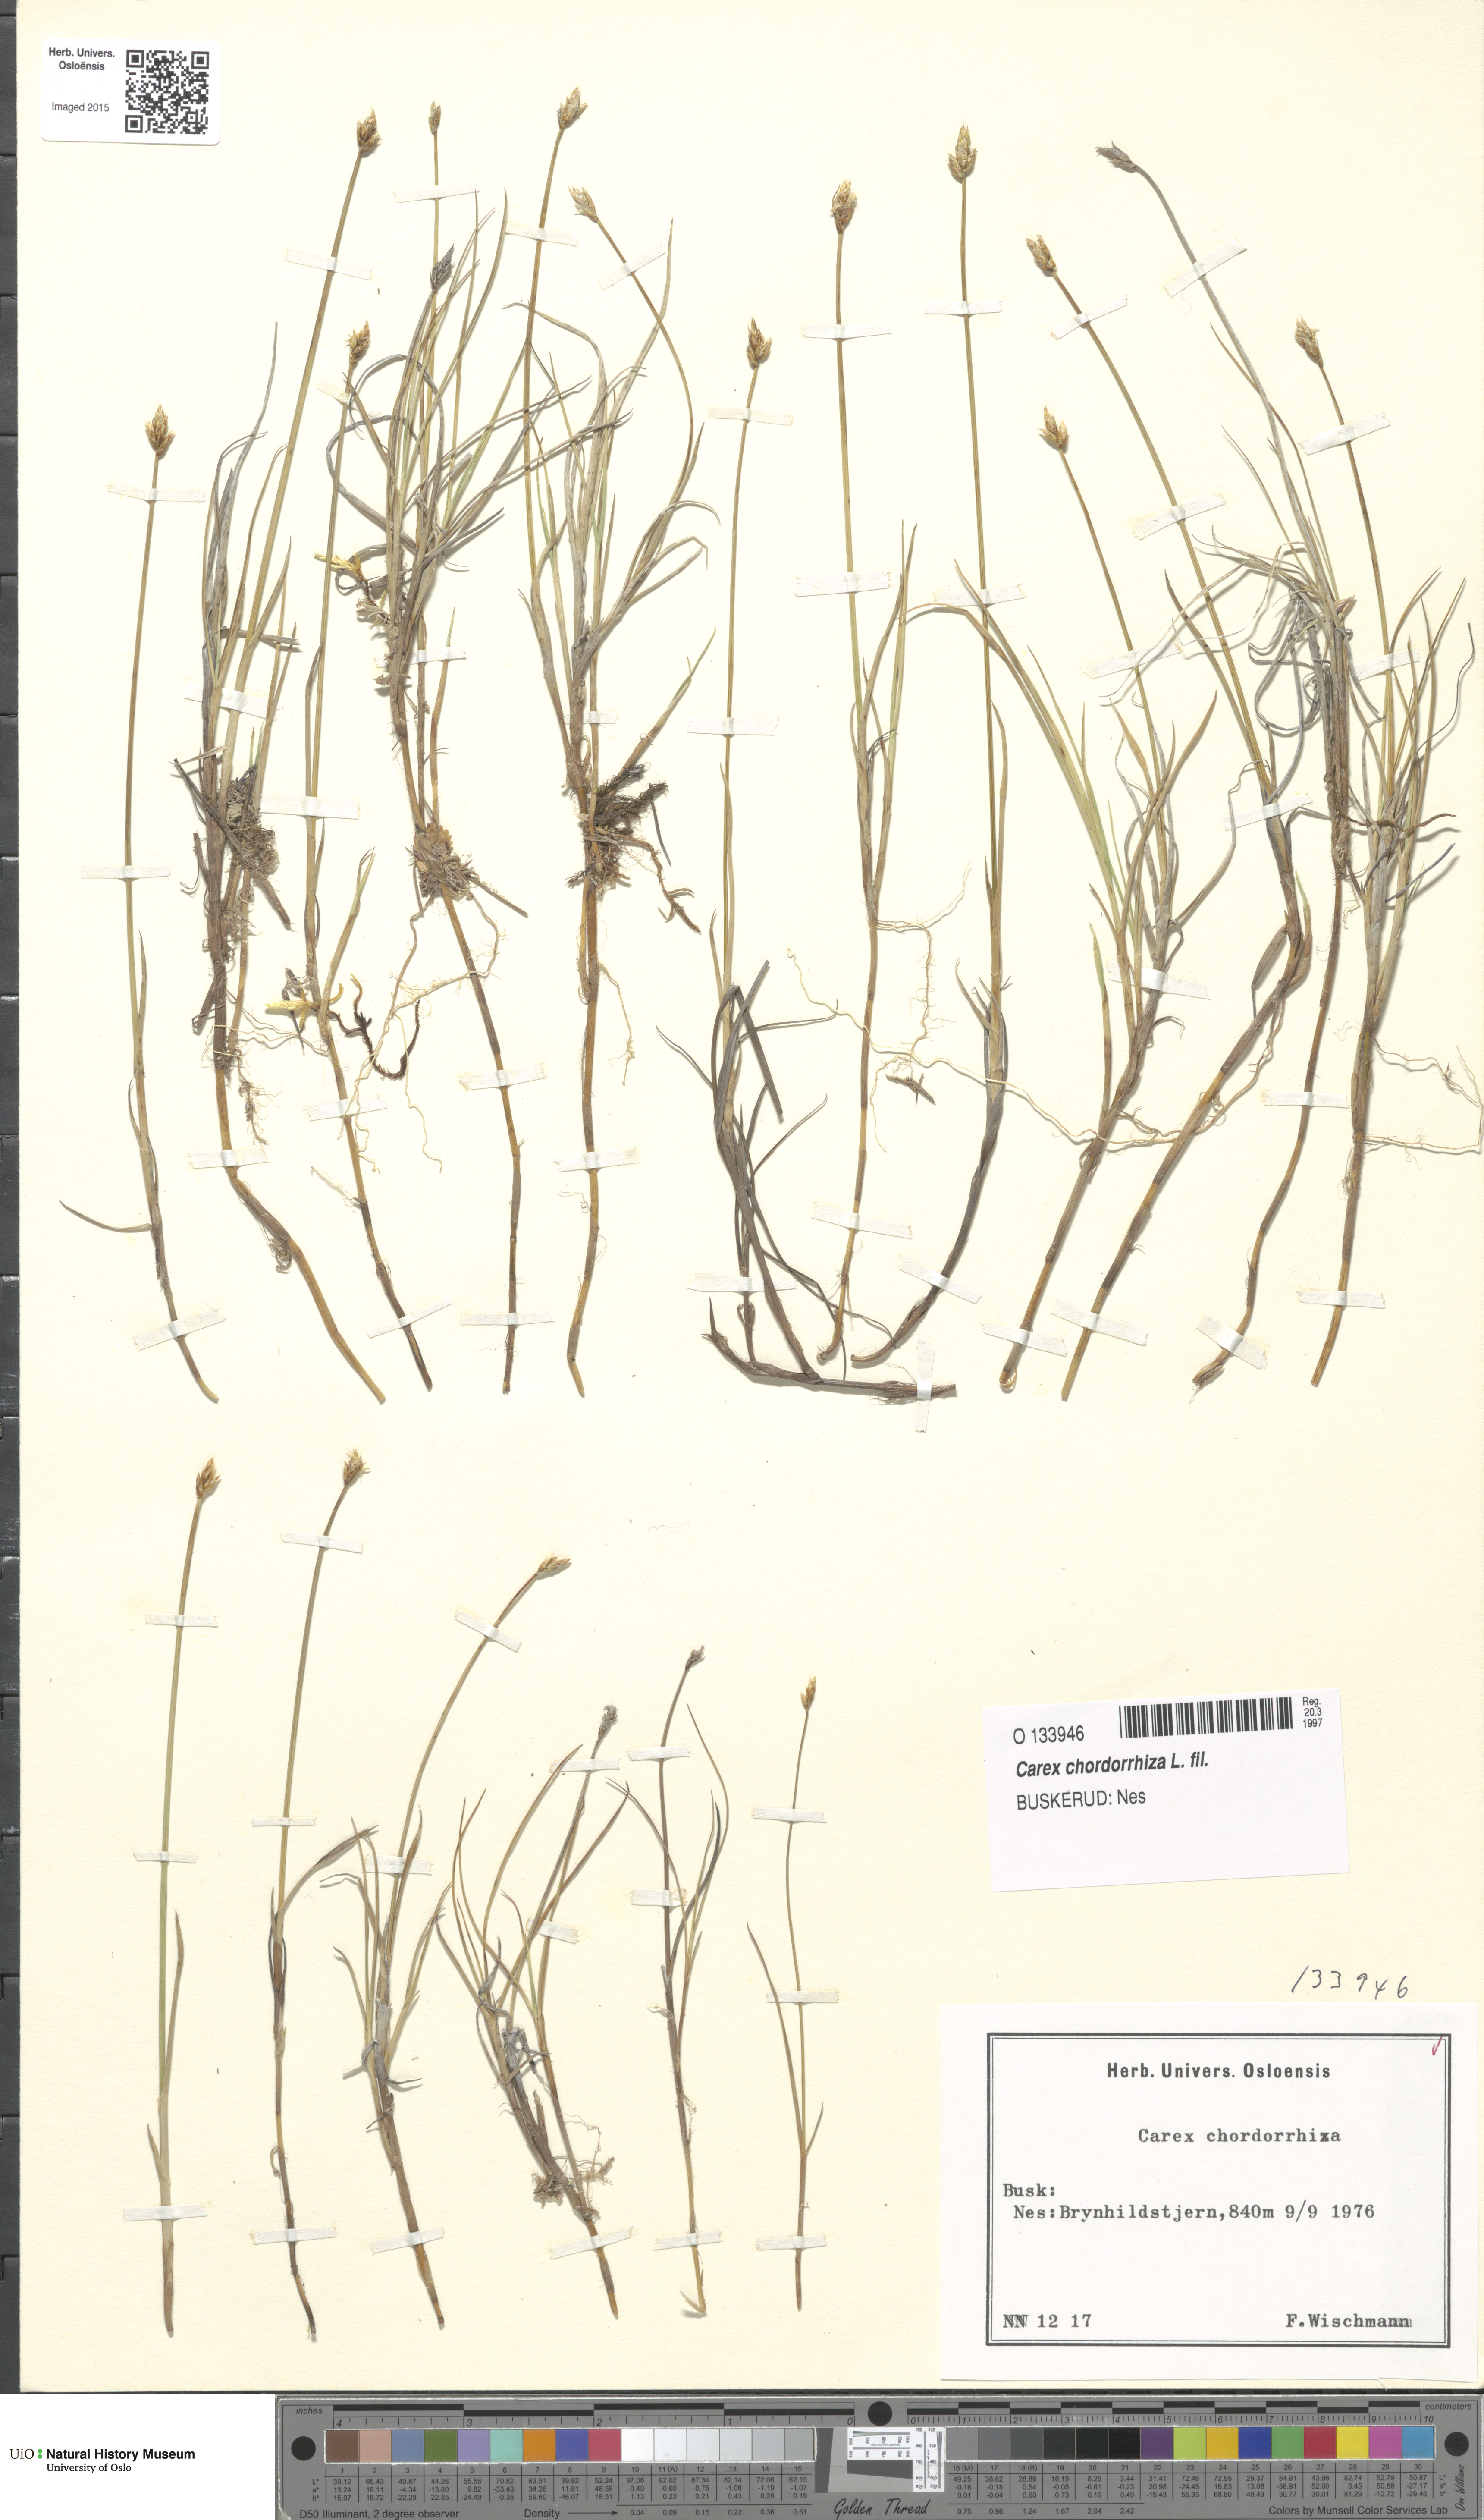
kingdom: Plantae
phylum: Tracheophyta
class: Liliopsida
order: Poales
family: Cyperaceae
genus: Carex
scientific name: Carex chordorrhiza
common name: String sedge
